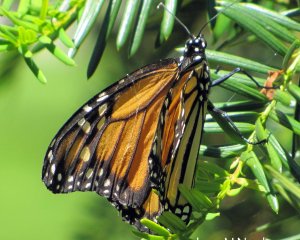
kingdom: Animalia
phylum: Arthropoda
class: Insecta
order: Lepidoptera
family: Nymphalidae
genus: Danaus
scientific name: Danaus plexippus
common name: Monarch
